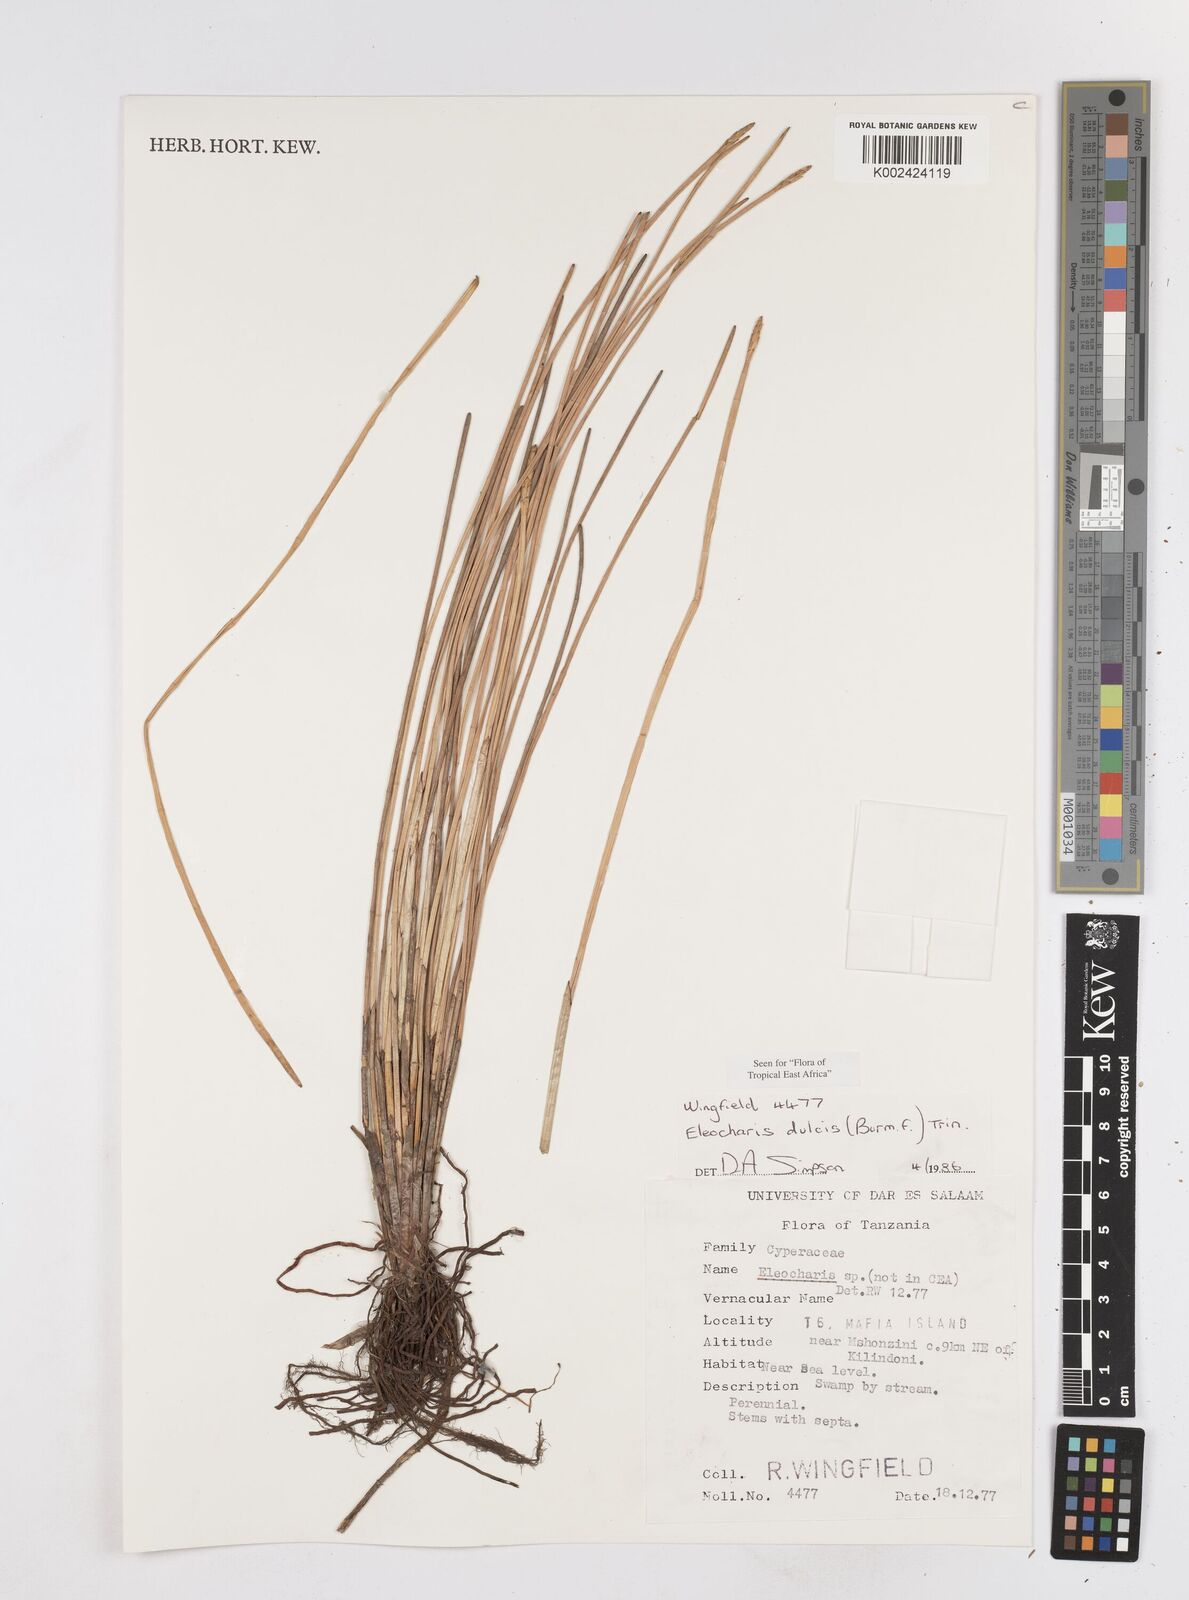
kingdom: Plantae
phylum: Tracheophyta
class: Liliopsida
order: Poales
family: Cyperaceae
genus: Eleocharis
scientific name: Eleocharis dulcis
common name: Chinese water chestnut
